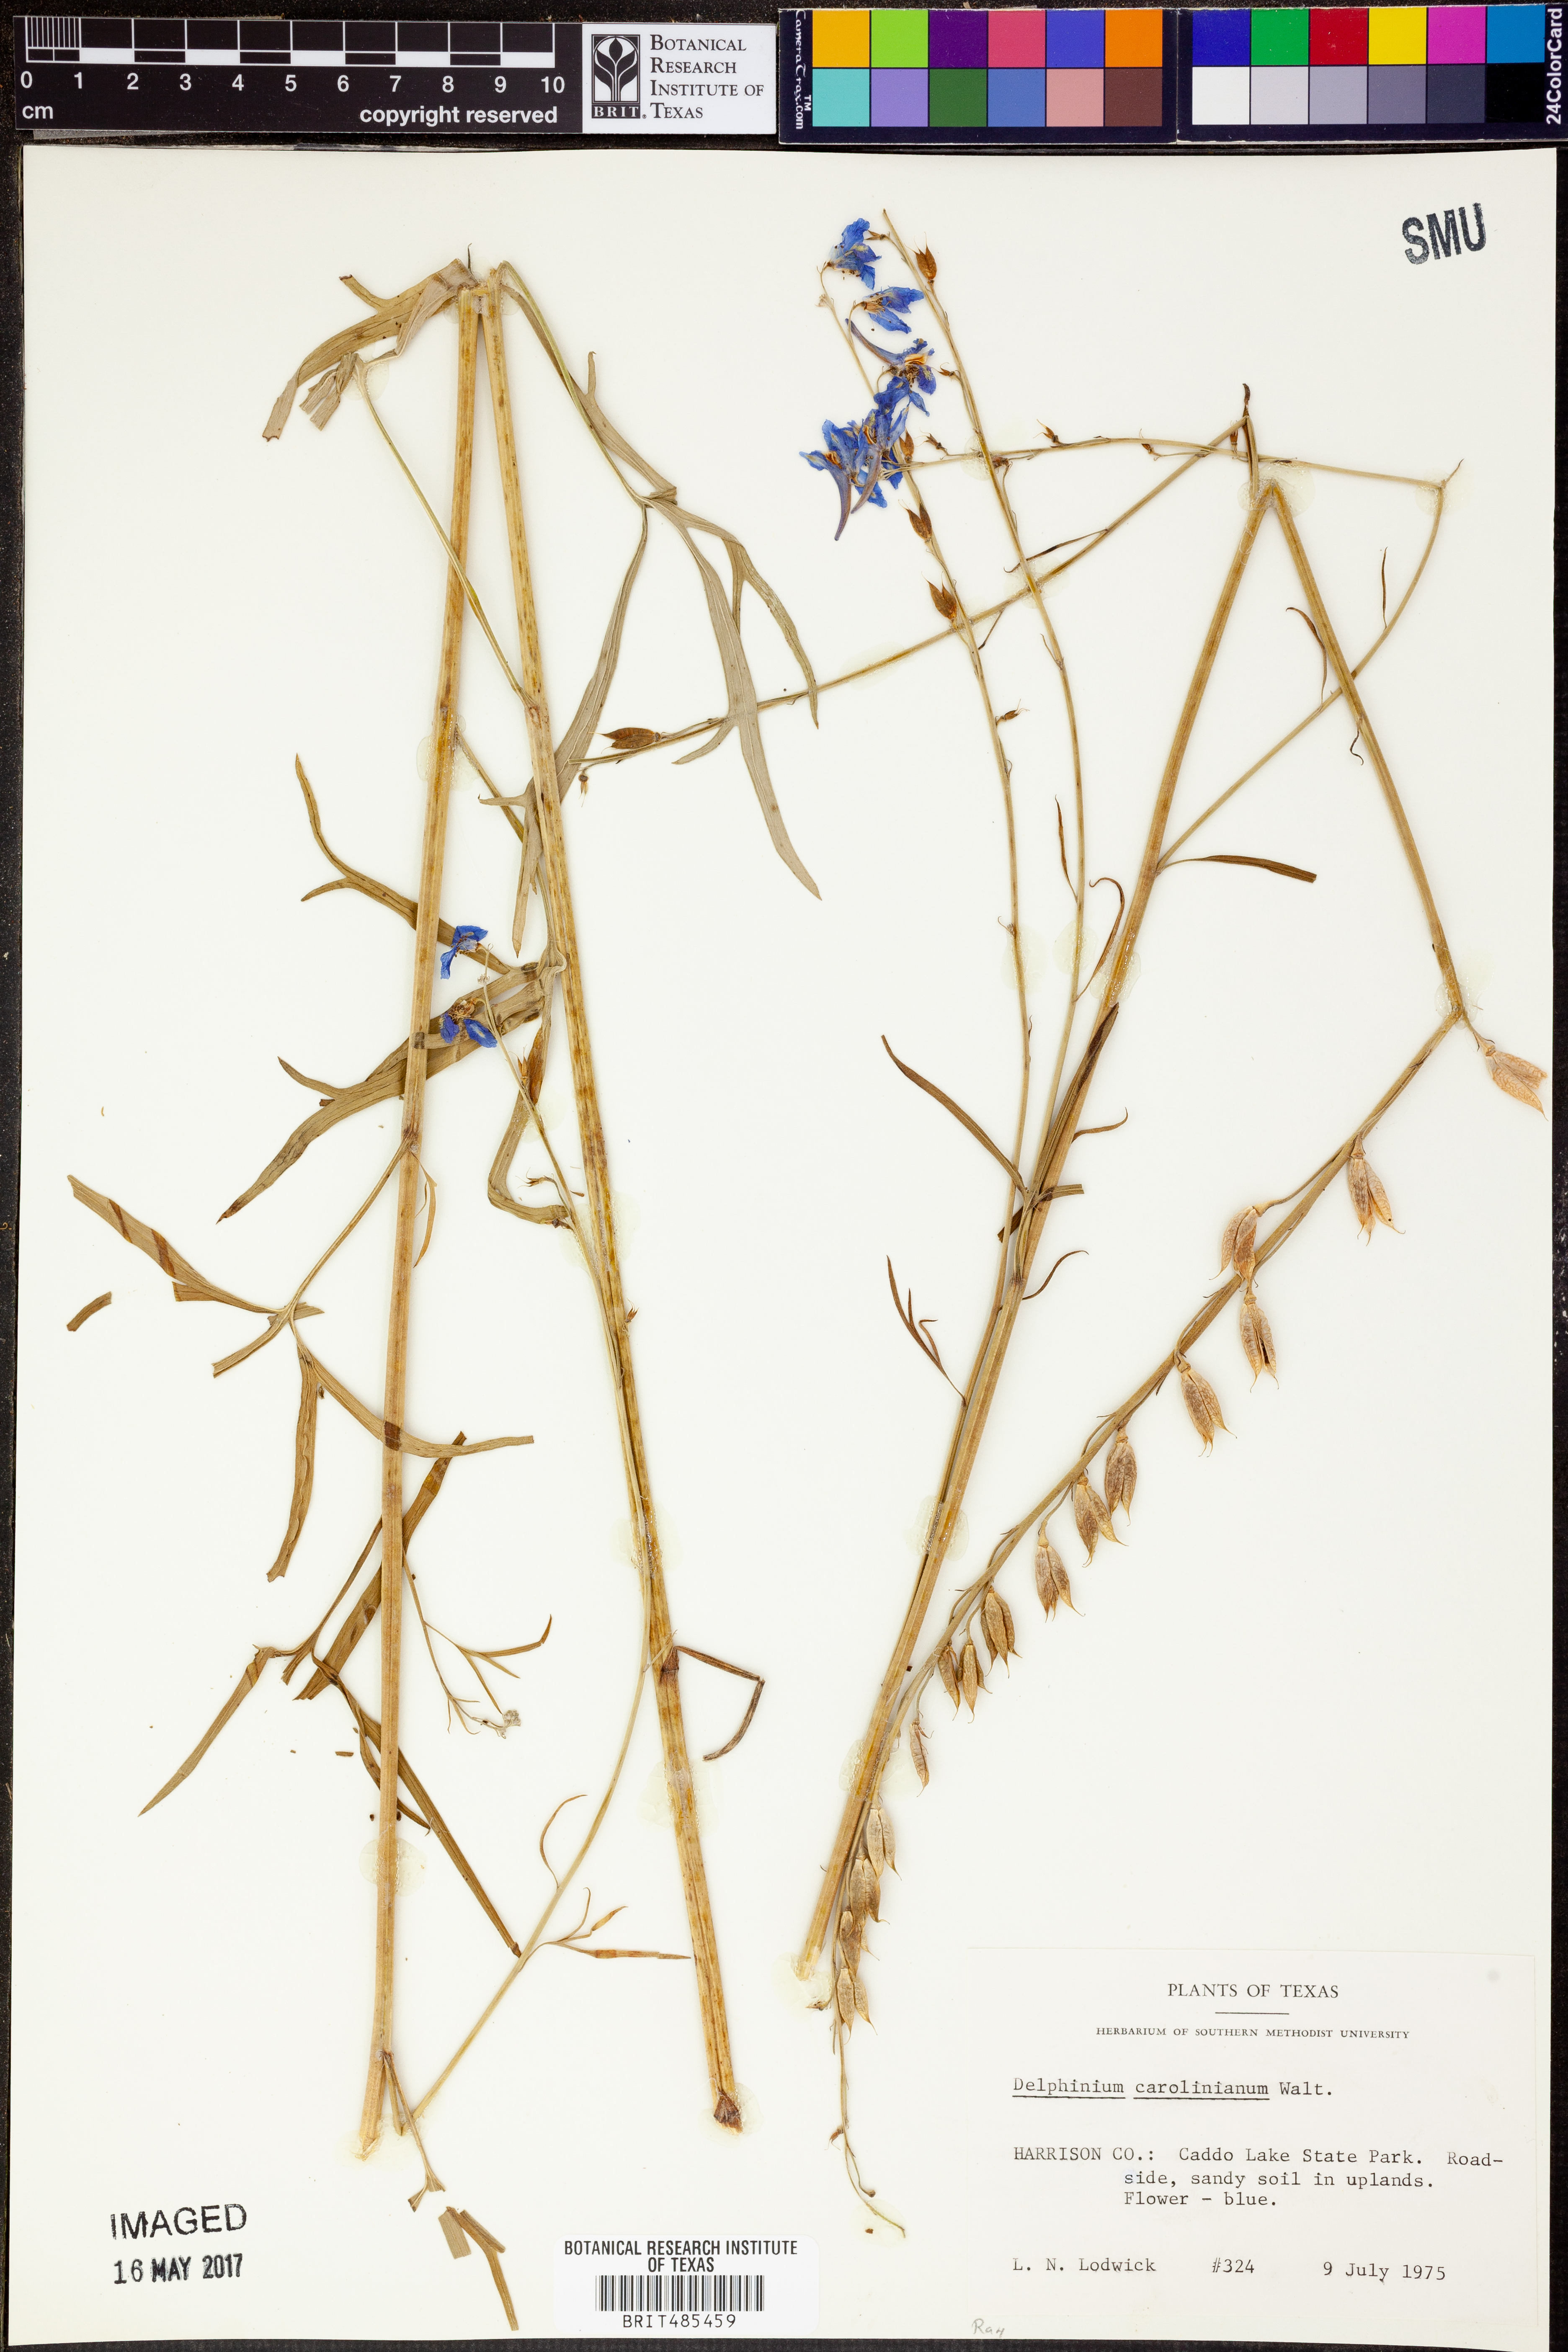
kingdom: Plantae
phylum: Tracheophyta
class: Magnoliopsida
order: Ranunculales
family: Ranunculaceae
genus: Delphinium
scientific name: Delphinium carolinianum
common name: Carolina larkspur
